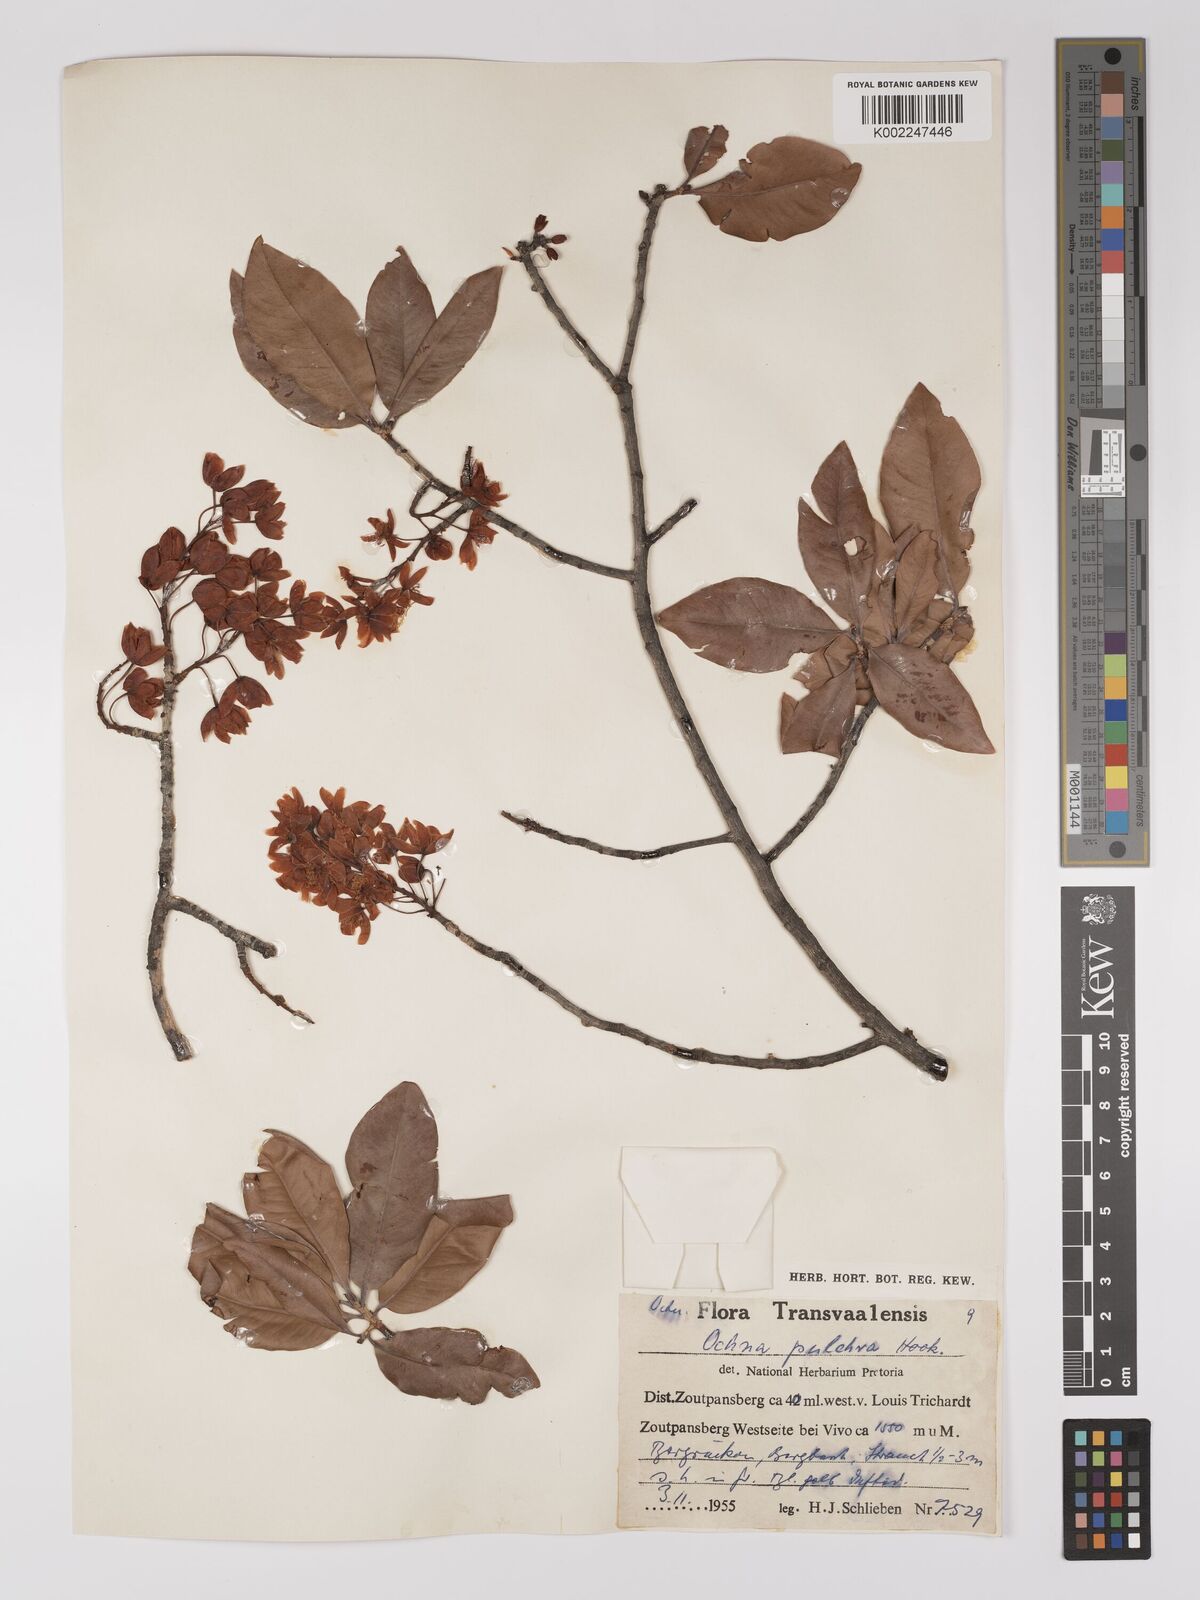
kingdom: Plantae
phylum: Tracheophyta
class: Magnoliopsida
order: Malpighiales
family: Ochnaceae
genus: Ochna
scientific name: Ochna pulchra
